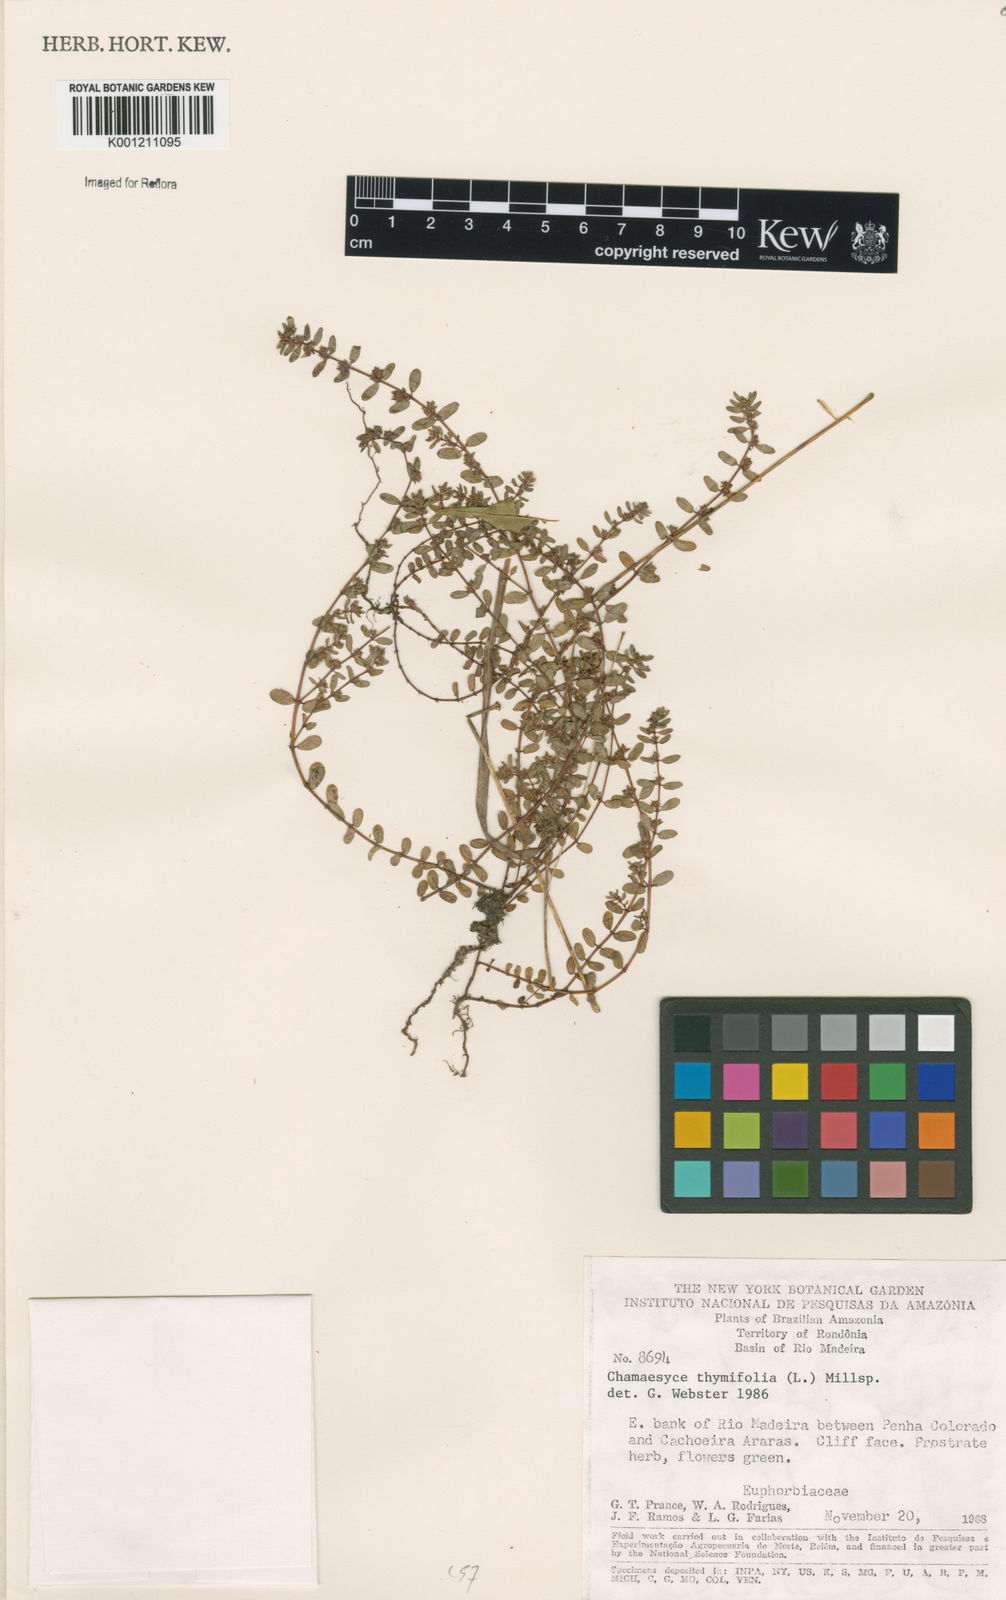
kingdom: Plantae
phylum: Tracheophyta
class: Magnoliopsida
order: Malpighiales
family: Euphorbiaceae
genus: Euphorbia
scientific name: Euphorbia thymifolia
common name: Gulf sandmat
